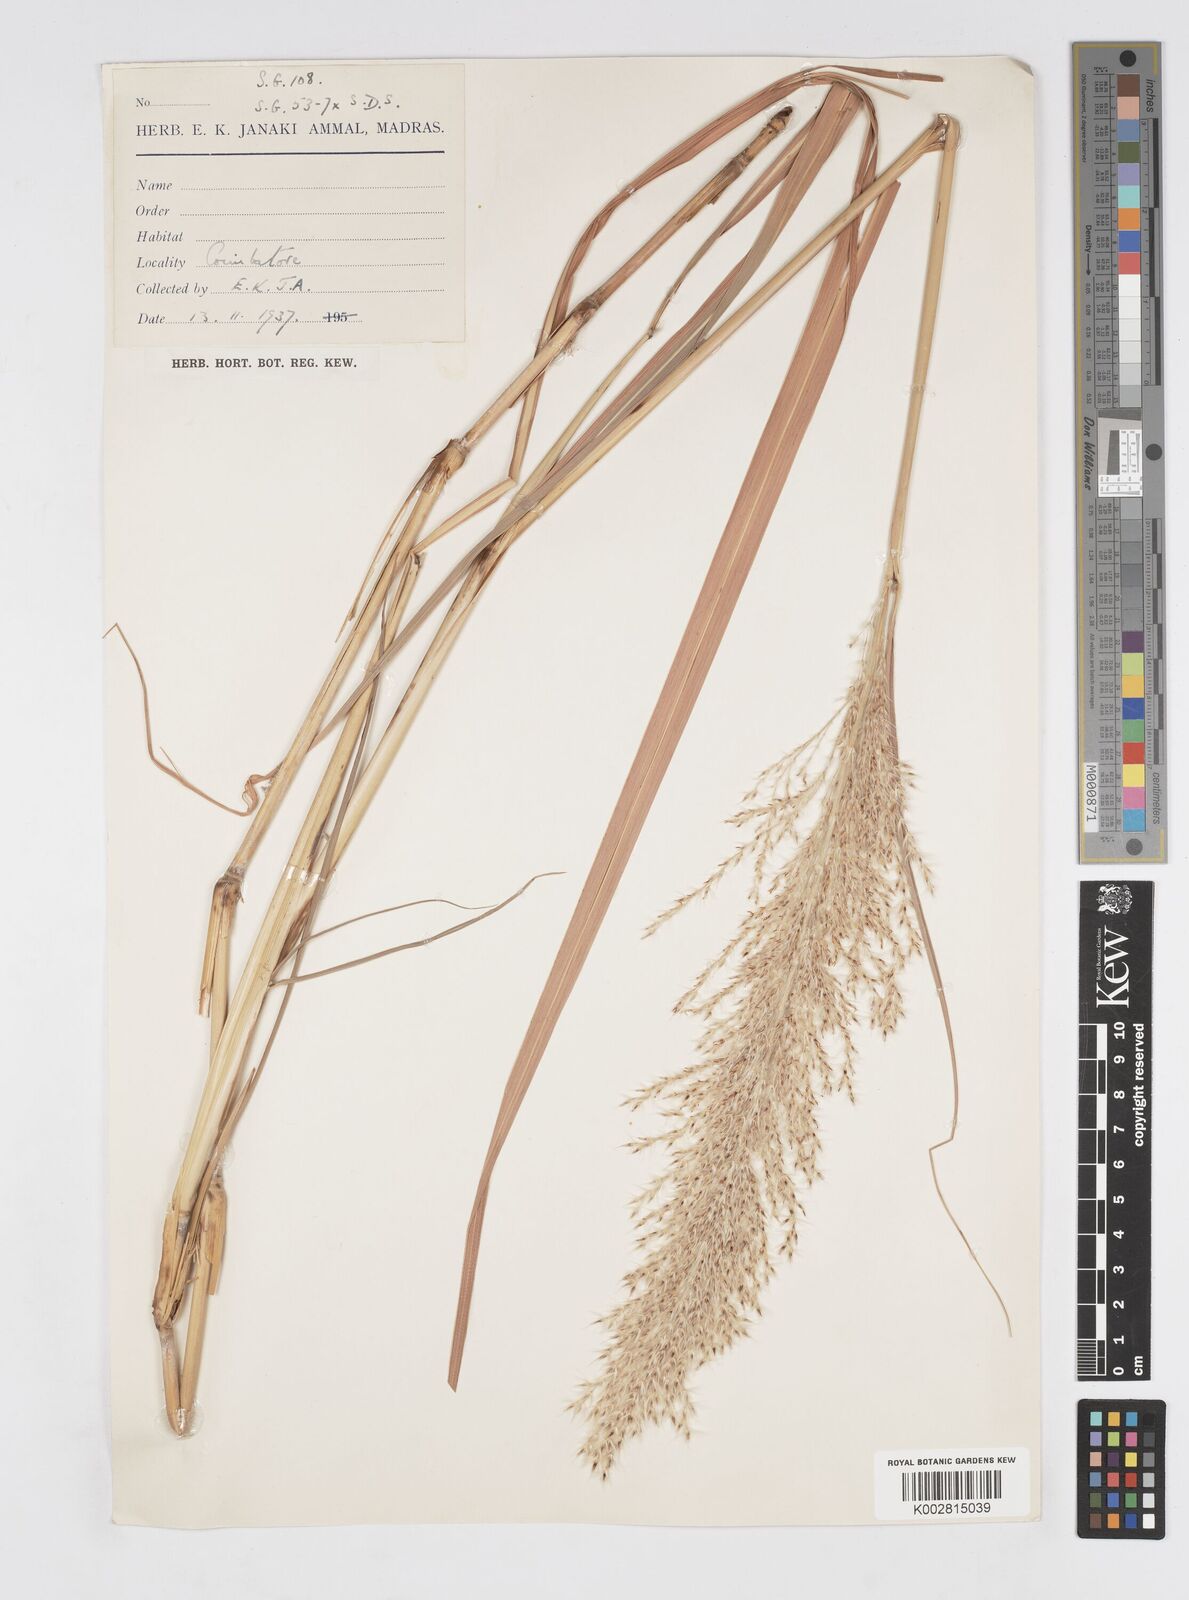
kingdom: Plantae
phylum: Tracheophyta
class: Liliopsida
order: Poales
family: Poaceae
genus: Saccharum
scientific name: Saccharum
